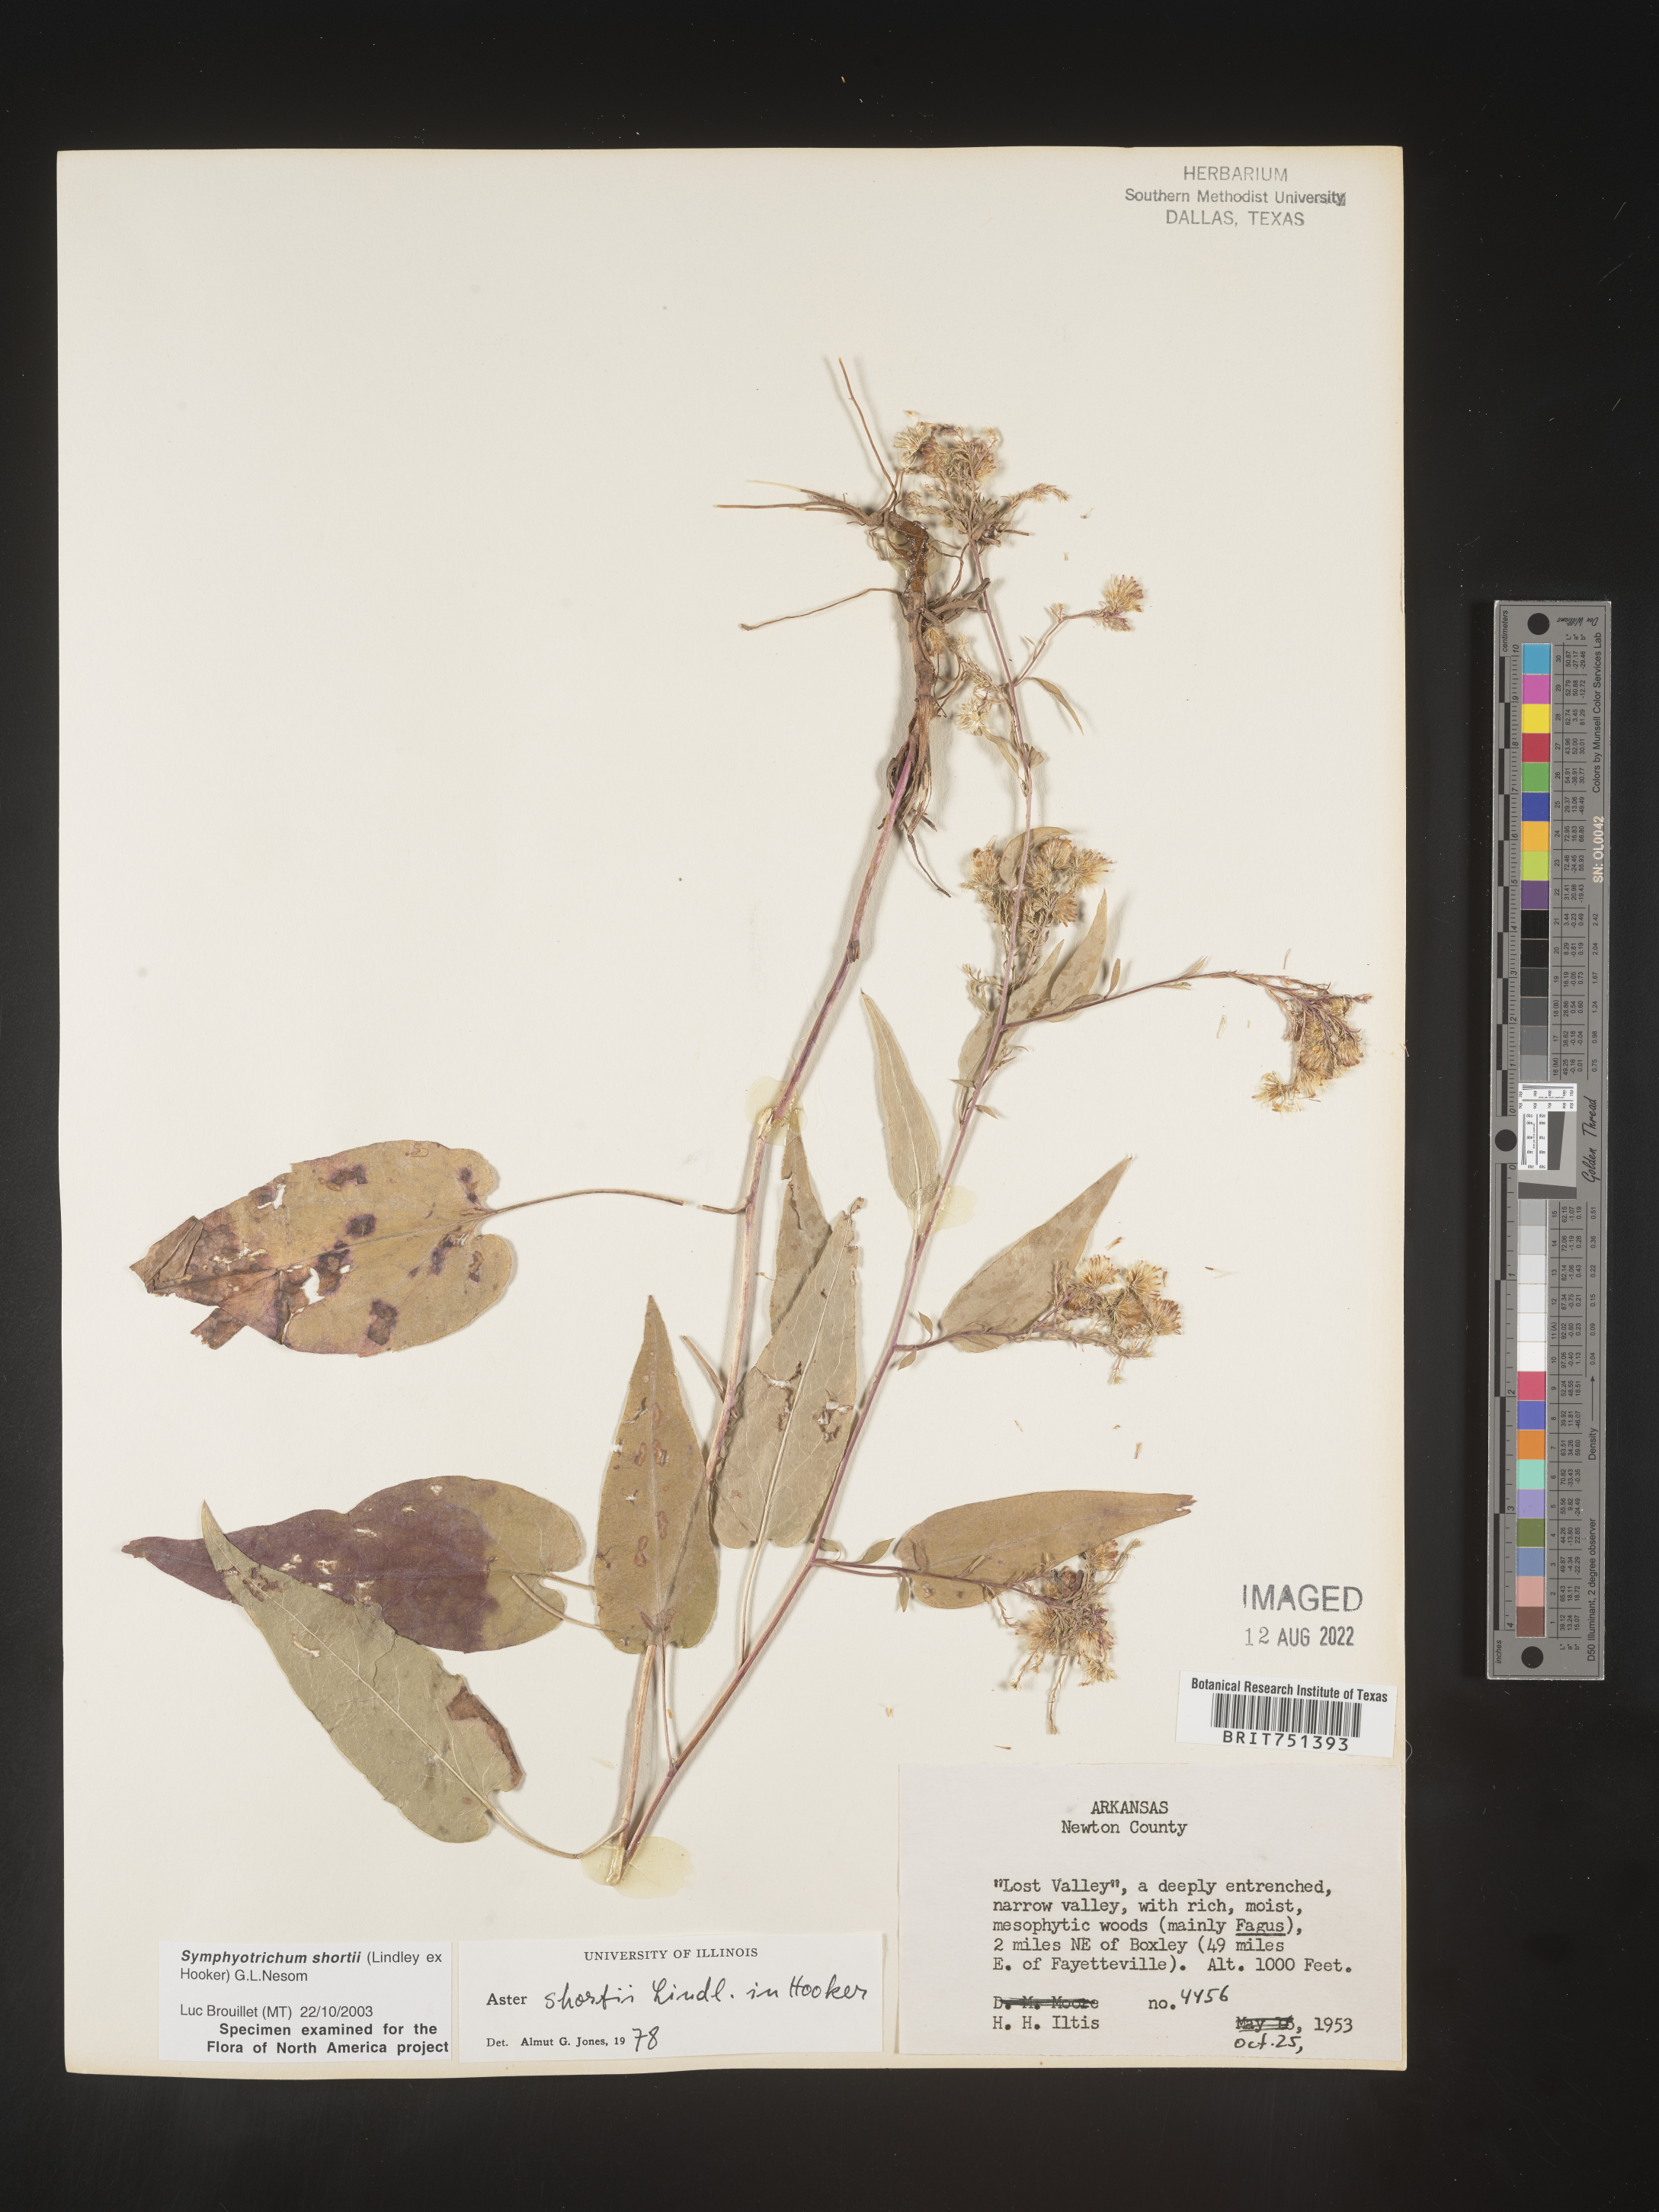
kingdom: Plantae
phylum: Tracheophyta
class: Magnoliopsida
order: Asterales
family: Asteraceae
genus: Symphyotrichum
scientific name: Symphyotrichum anomalum
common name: Many-ray aster
